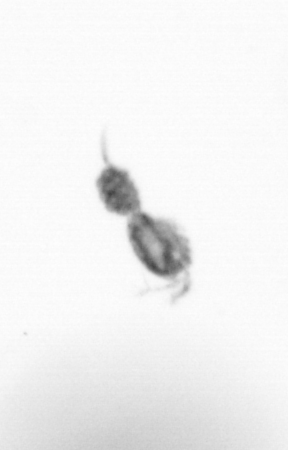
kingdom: Animalia
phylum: Arthropoda
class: Copepoda
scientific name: Copepoda
